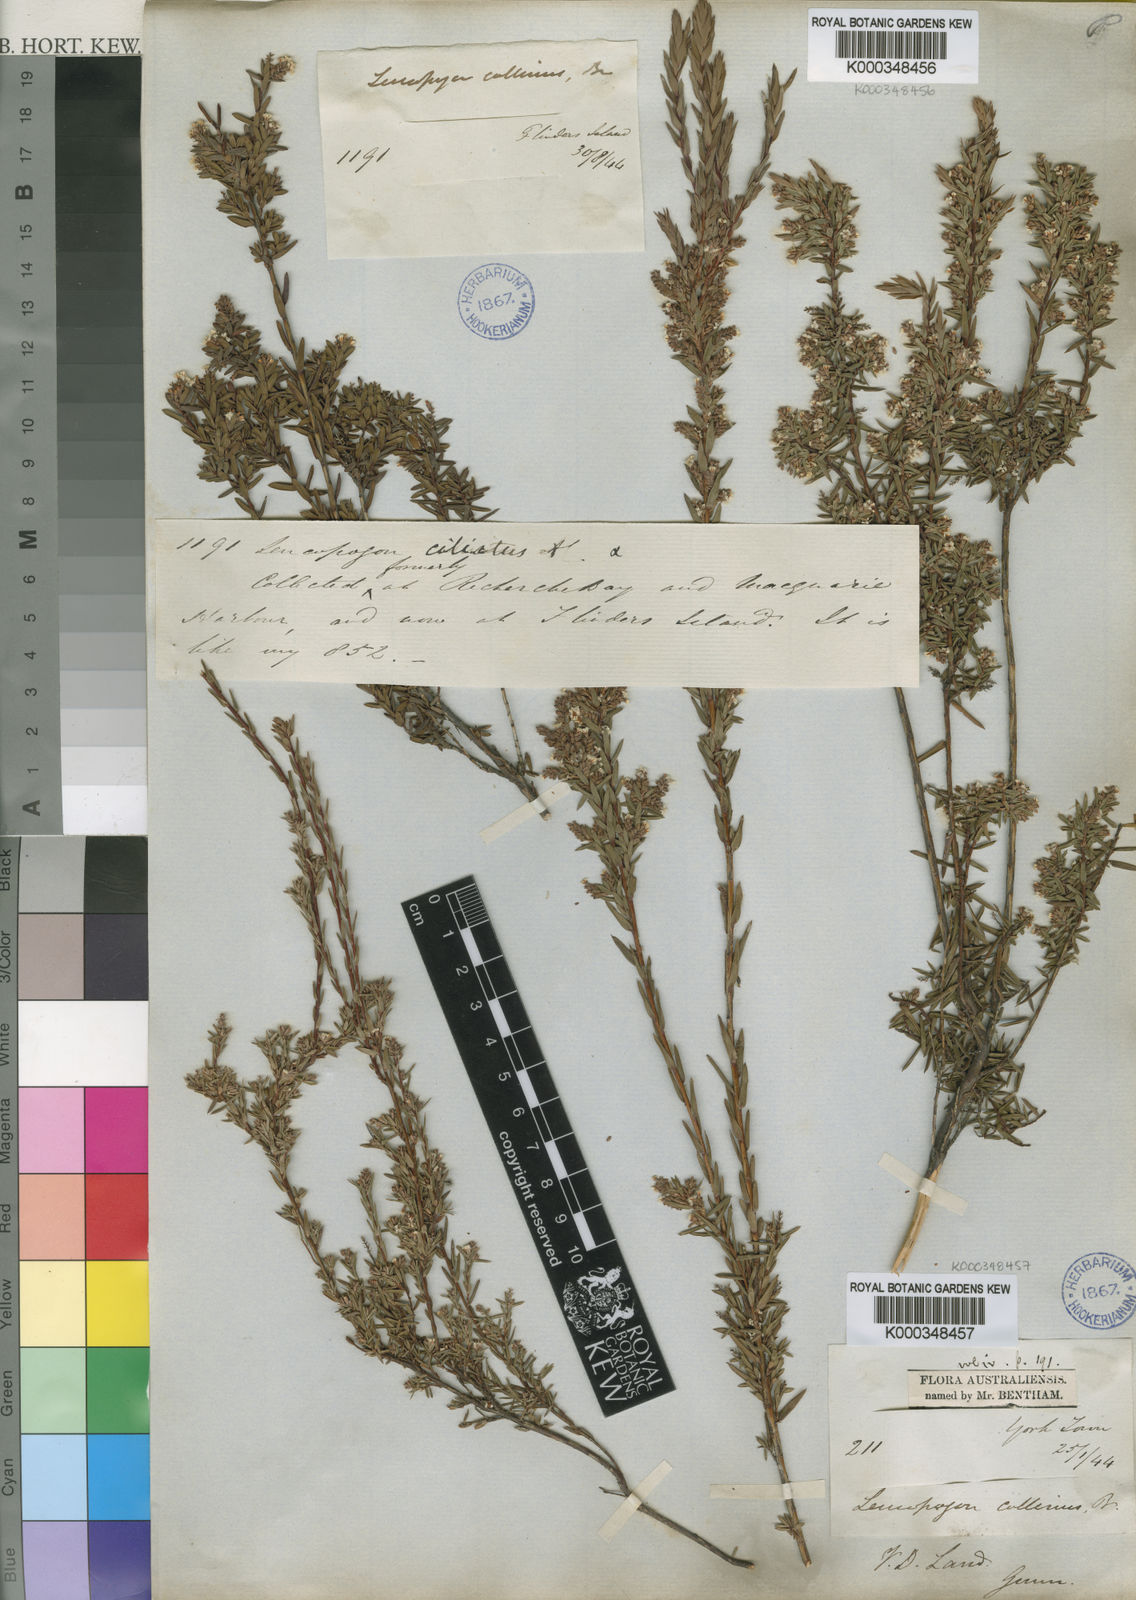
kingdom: Plantae
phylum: Tracheophyta
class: Magnoliopsida
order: Ericales
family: Ericaceae
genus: Leucopogon
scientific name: Leucopogon collinus
